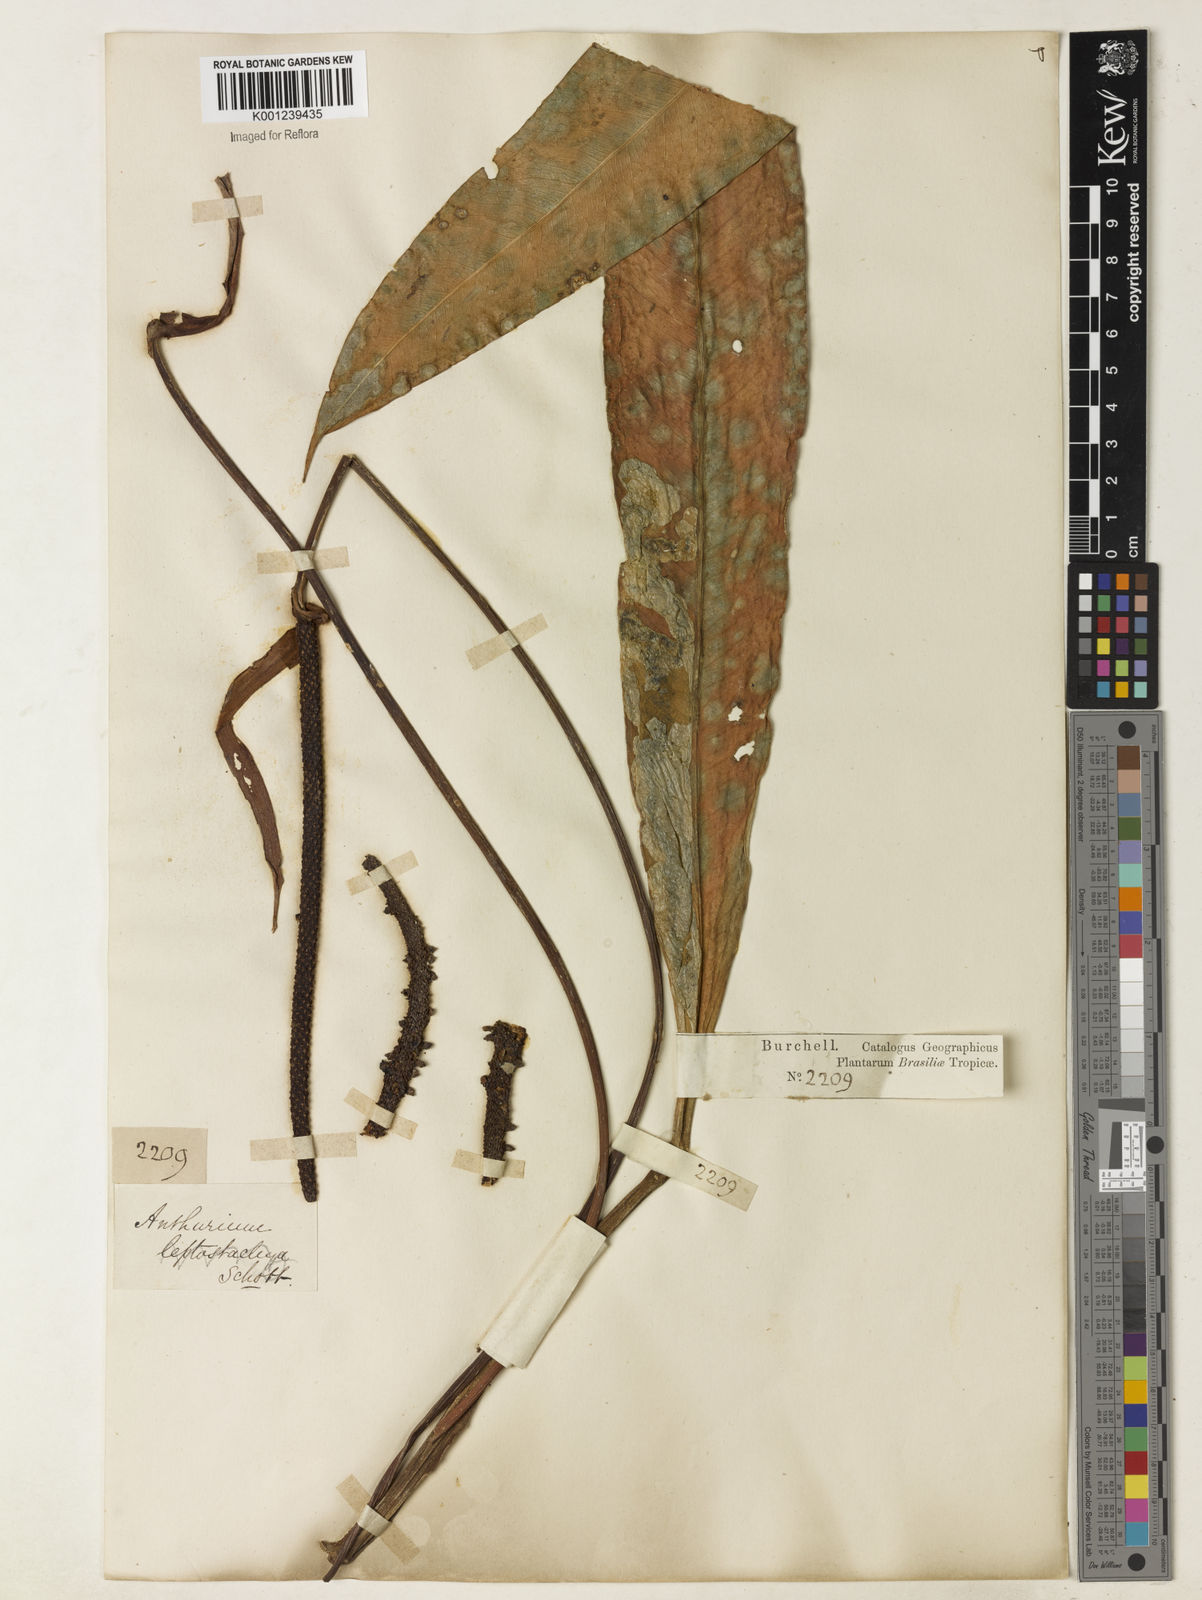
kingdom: Plantae
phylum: Tracheophyta
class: Liliopsida
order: Alismatales
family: Araceae
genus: Anthurium
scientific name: Anthurium harrisii
